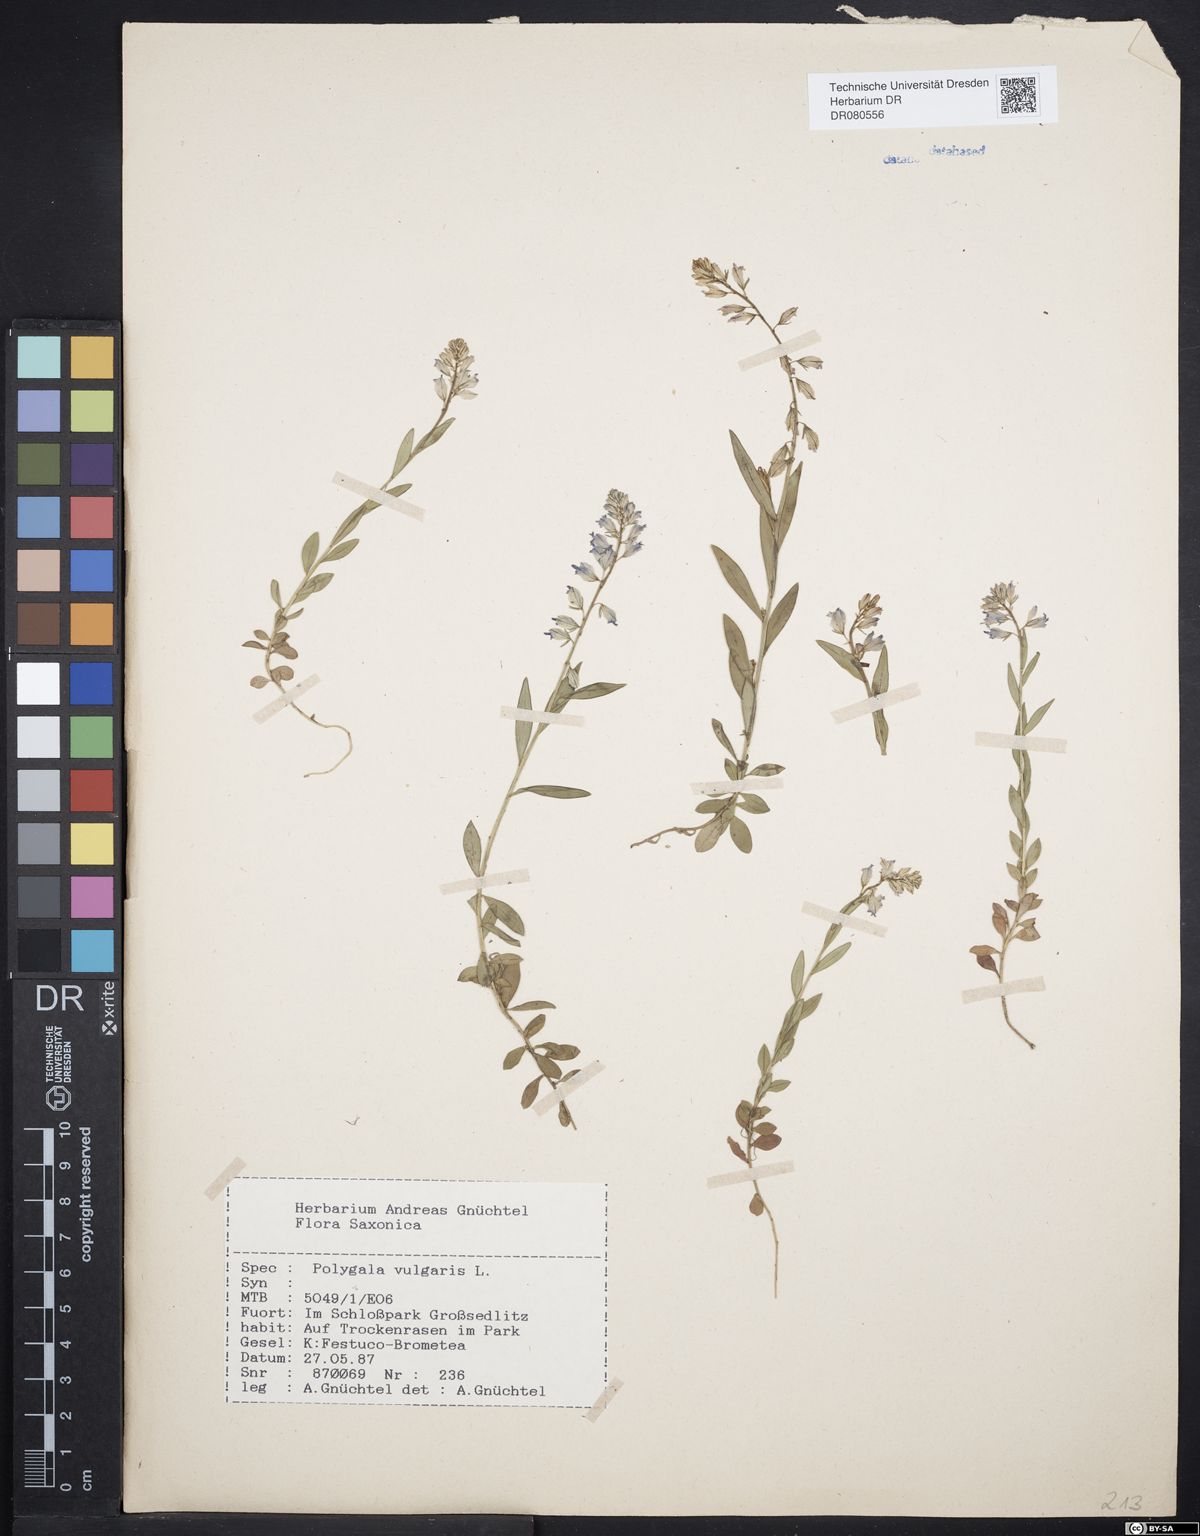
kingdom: Plantae
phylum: Tracheophyta
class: Magnoliopsida
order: Fabales
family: Polygalaceae
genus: Polygala
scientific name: Polygala vulgaris
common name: Common milkwort
